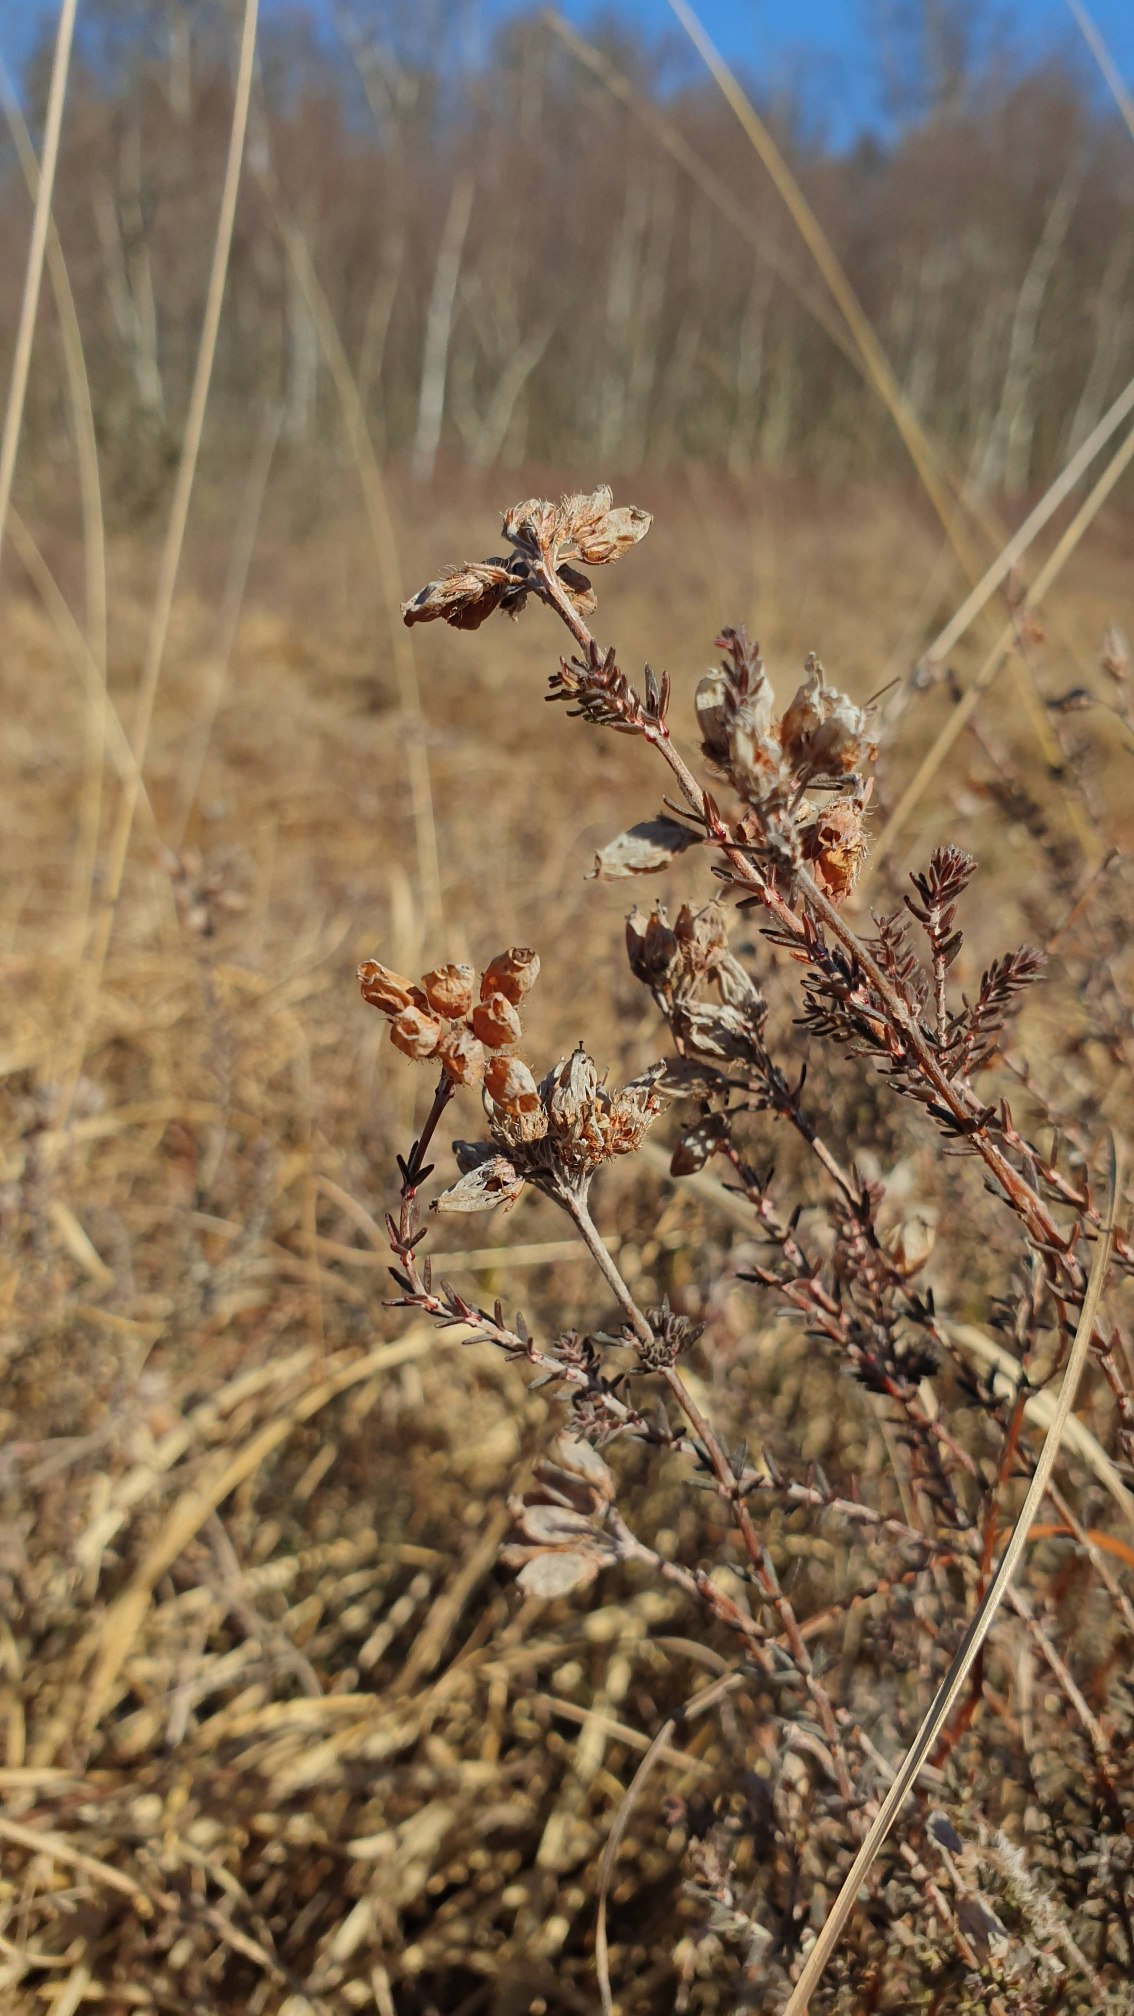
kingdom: Plantae
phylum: Tracheophyta
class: Magnoliopsida
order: Ericales
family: Ericaceae
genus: Erica
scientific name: Erica tetralix
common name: Klokkelyng
